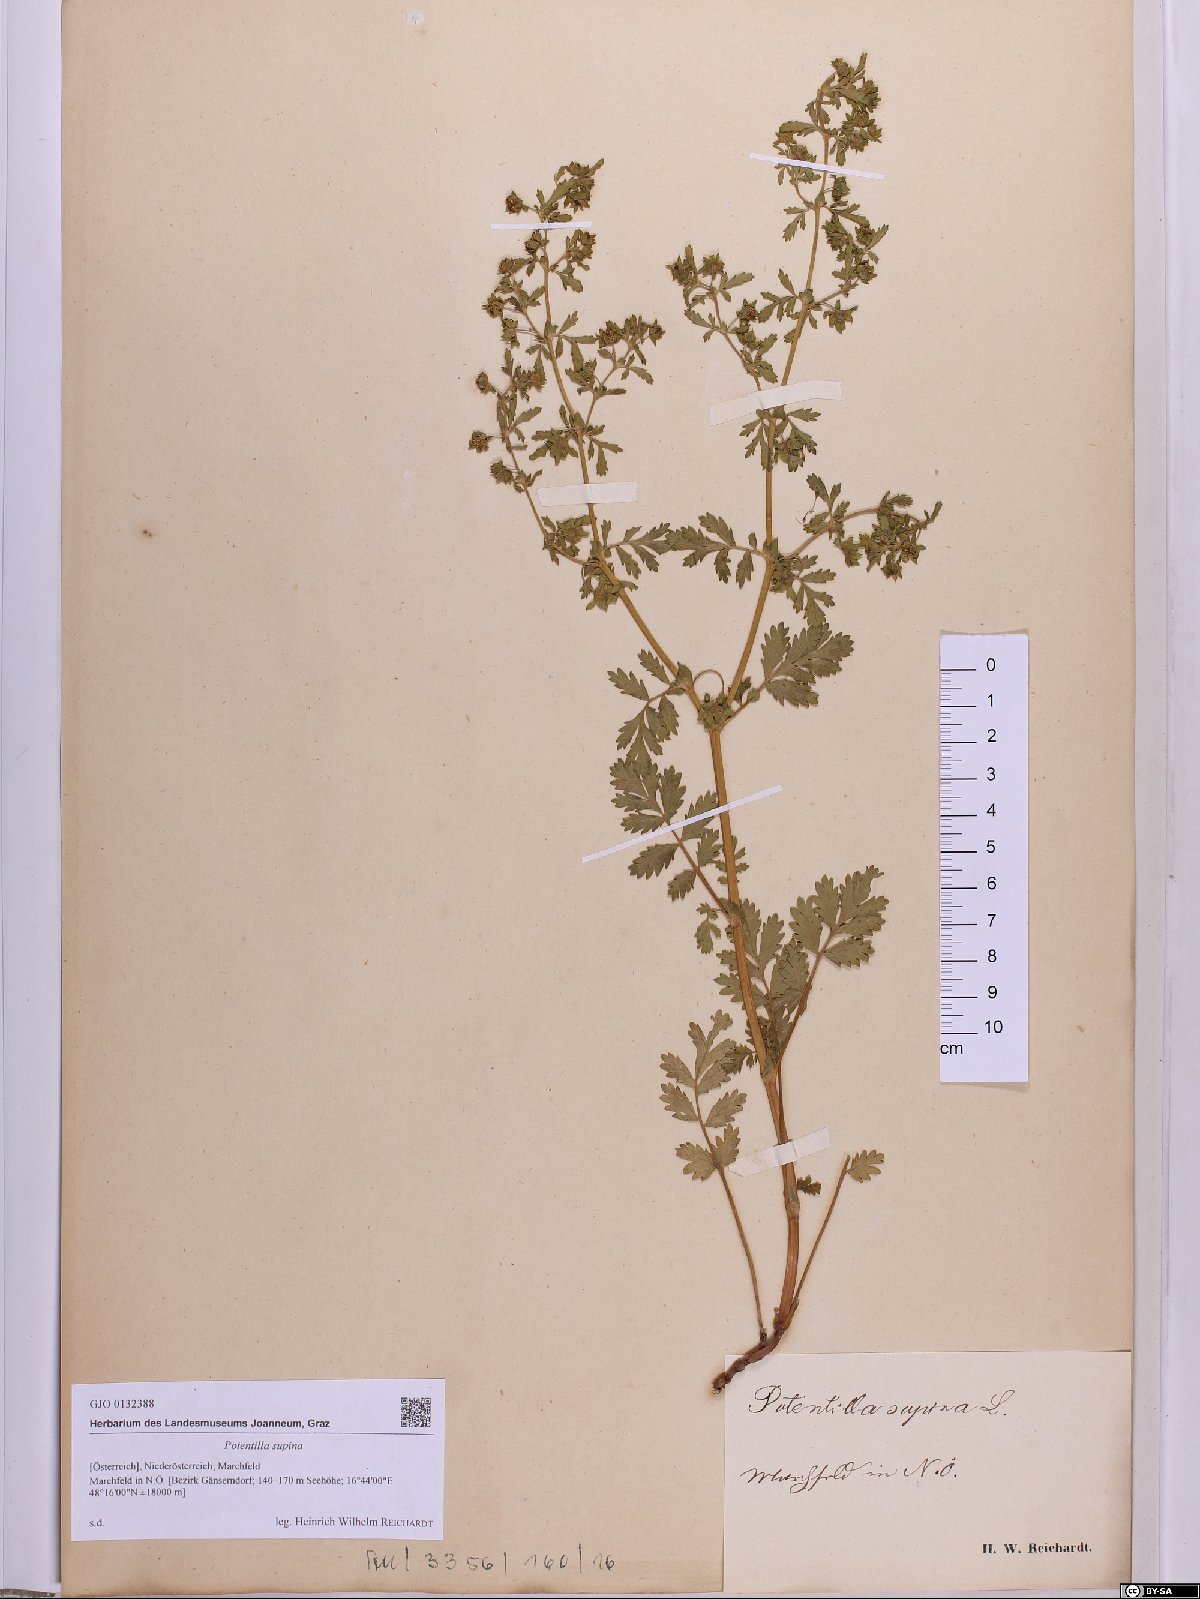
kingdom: Plantae
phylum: Tracheophyta
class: Magnoliopsida
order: Rosales
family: Rosaceae
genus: Potentilla
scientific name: Potentilla supina
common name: Prostrate cinquefoil
